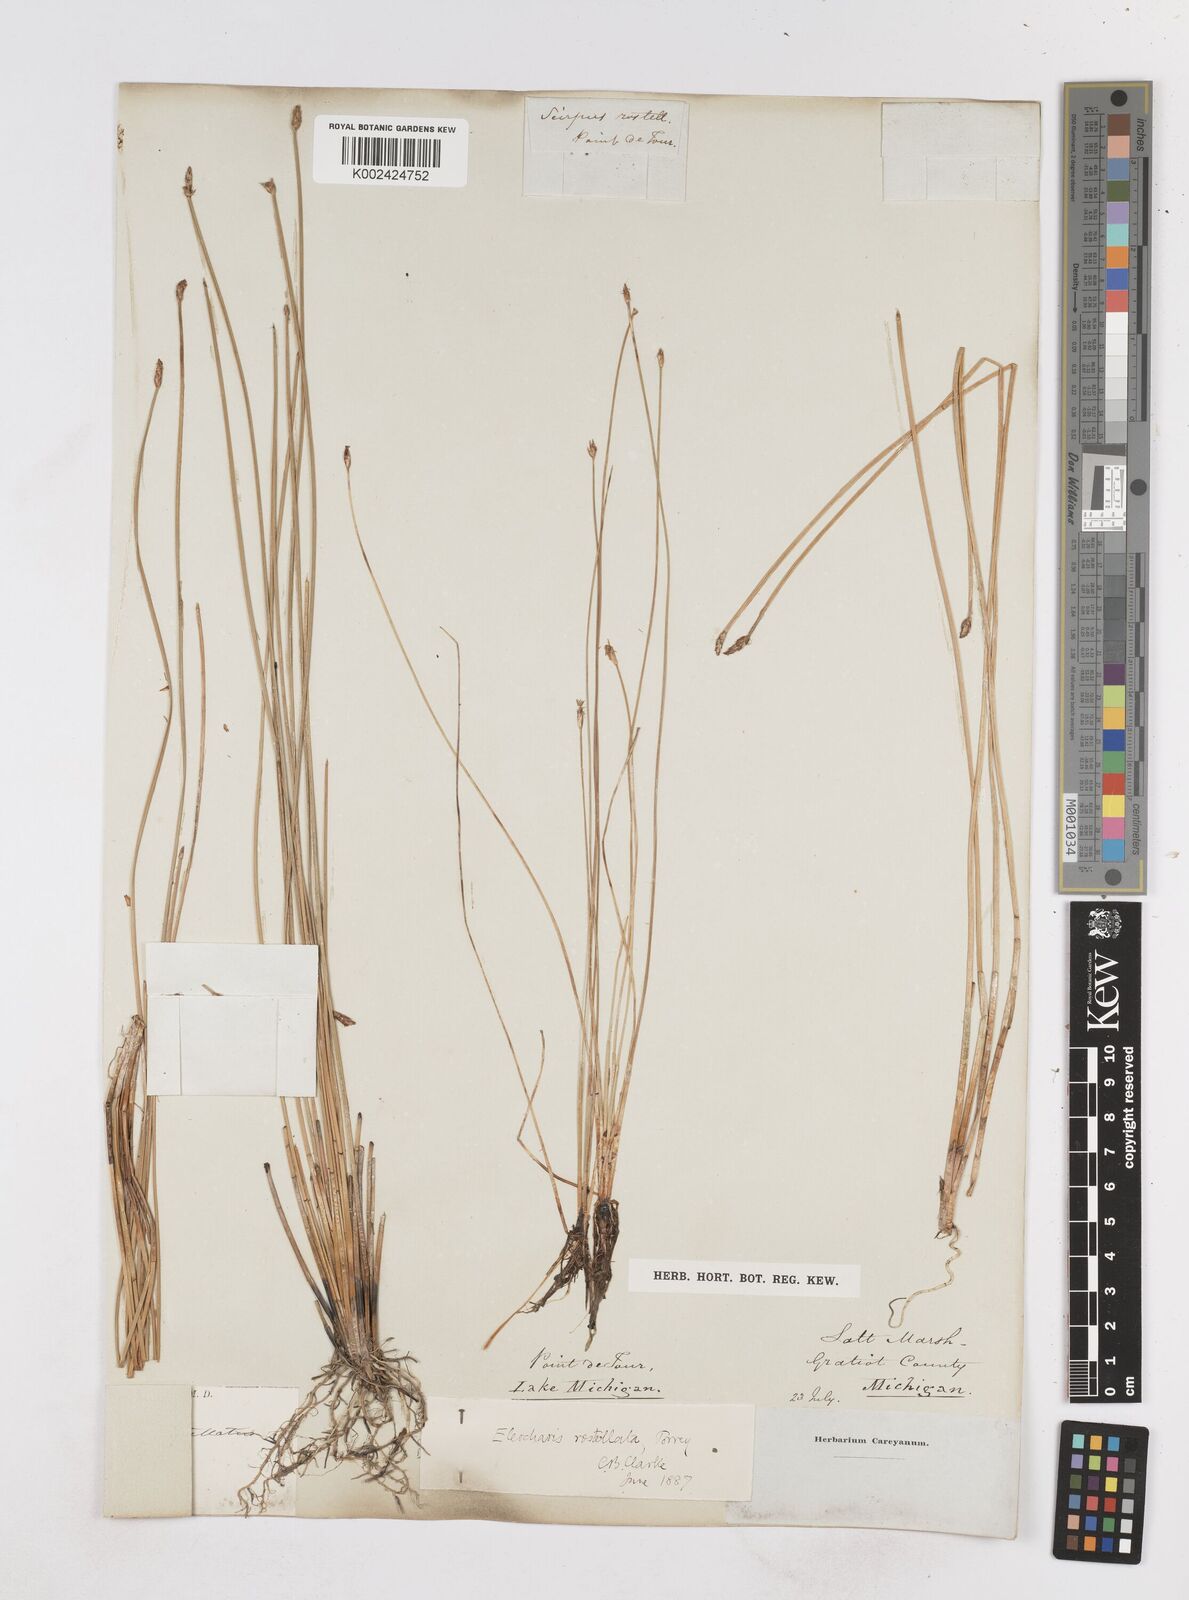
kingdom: Plantae
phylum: Tracheophyta
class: Liliopsida
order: Poales
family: Cyperaceae
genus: Eleocharis
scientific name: Eleocharis rostellata
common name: Walking sedge
